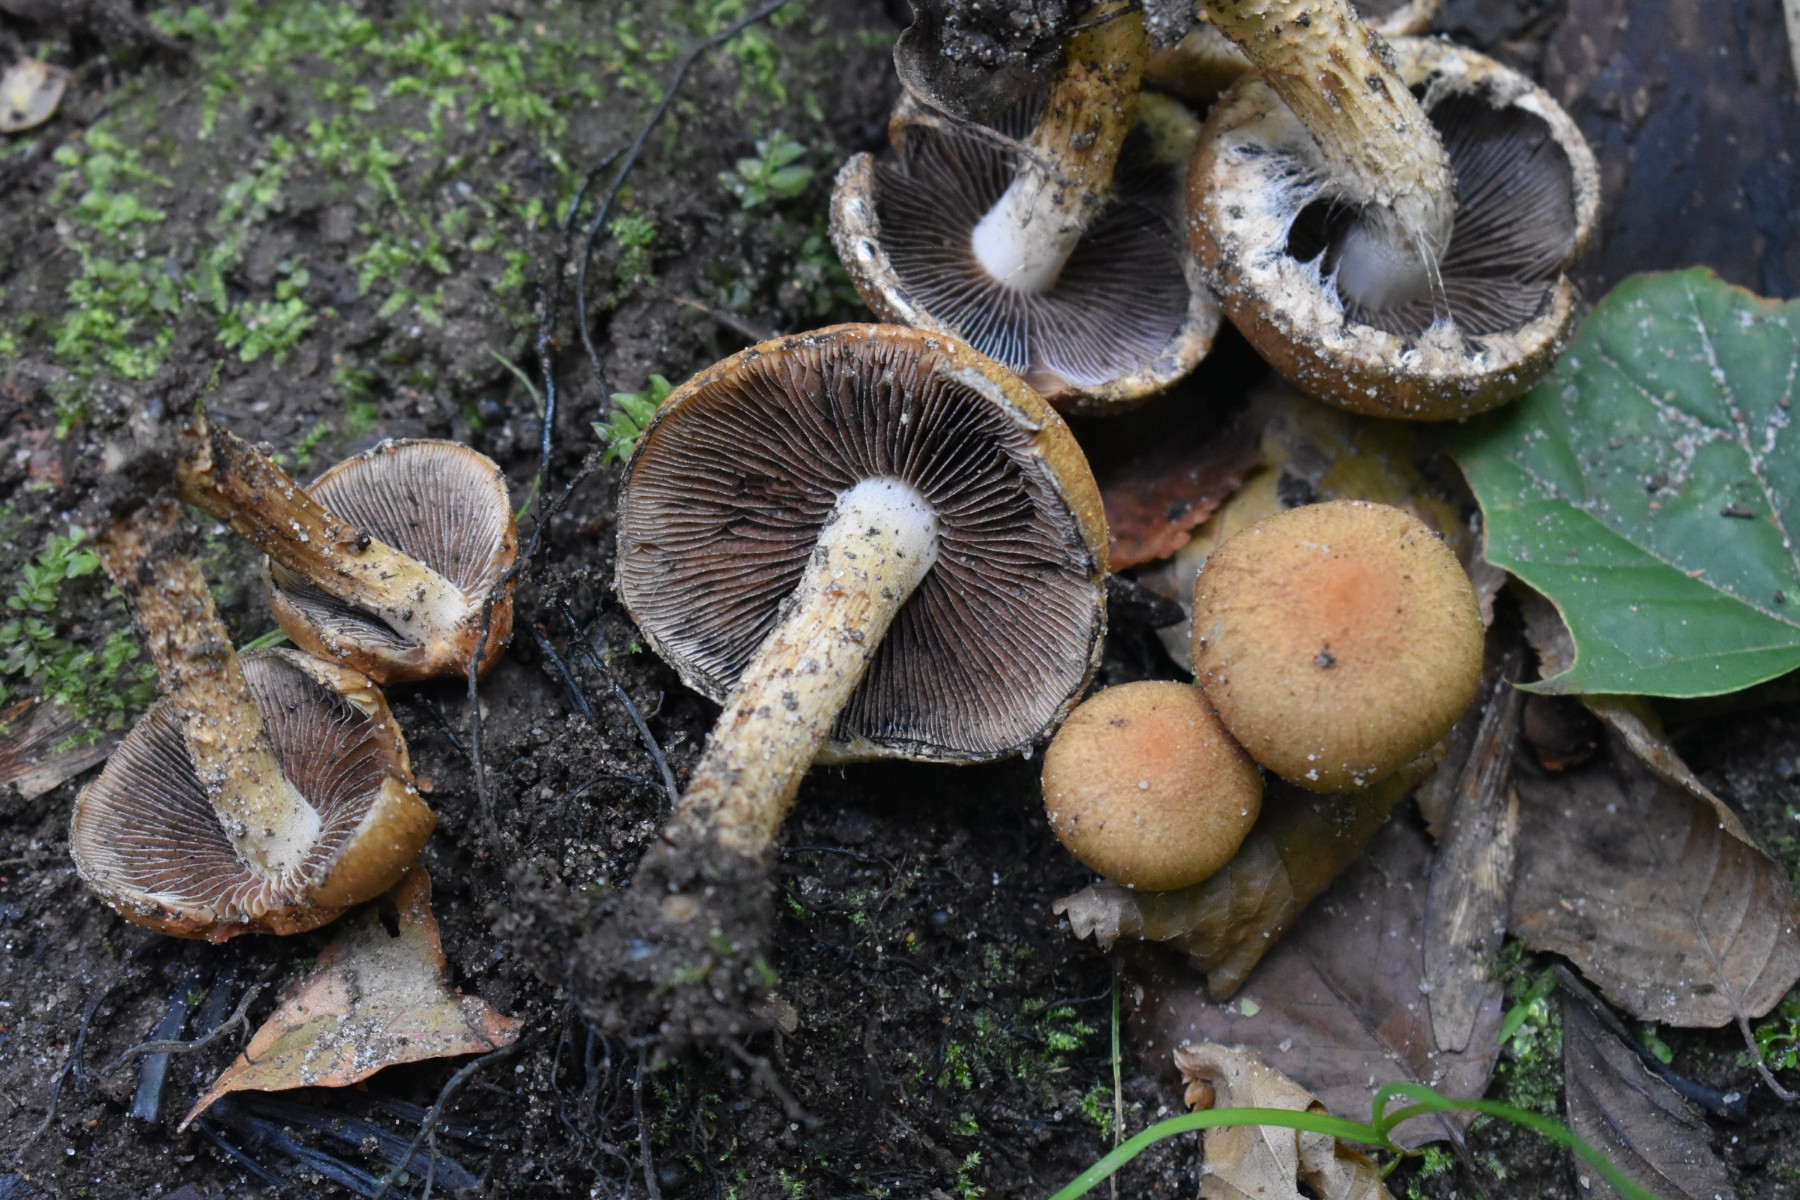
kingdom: Fungi
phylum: Basidiomycota
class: Agaricomycetes
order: Agaricales
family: Psathyrellaceae
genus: Lacrymaria
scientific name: Lacrymaria lacrymabunda
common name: grædende mørkhat
